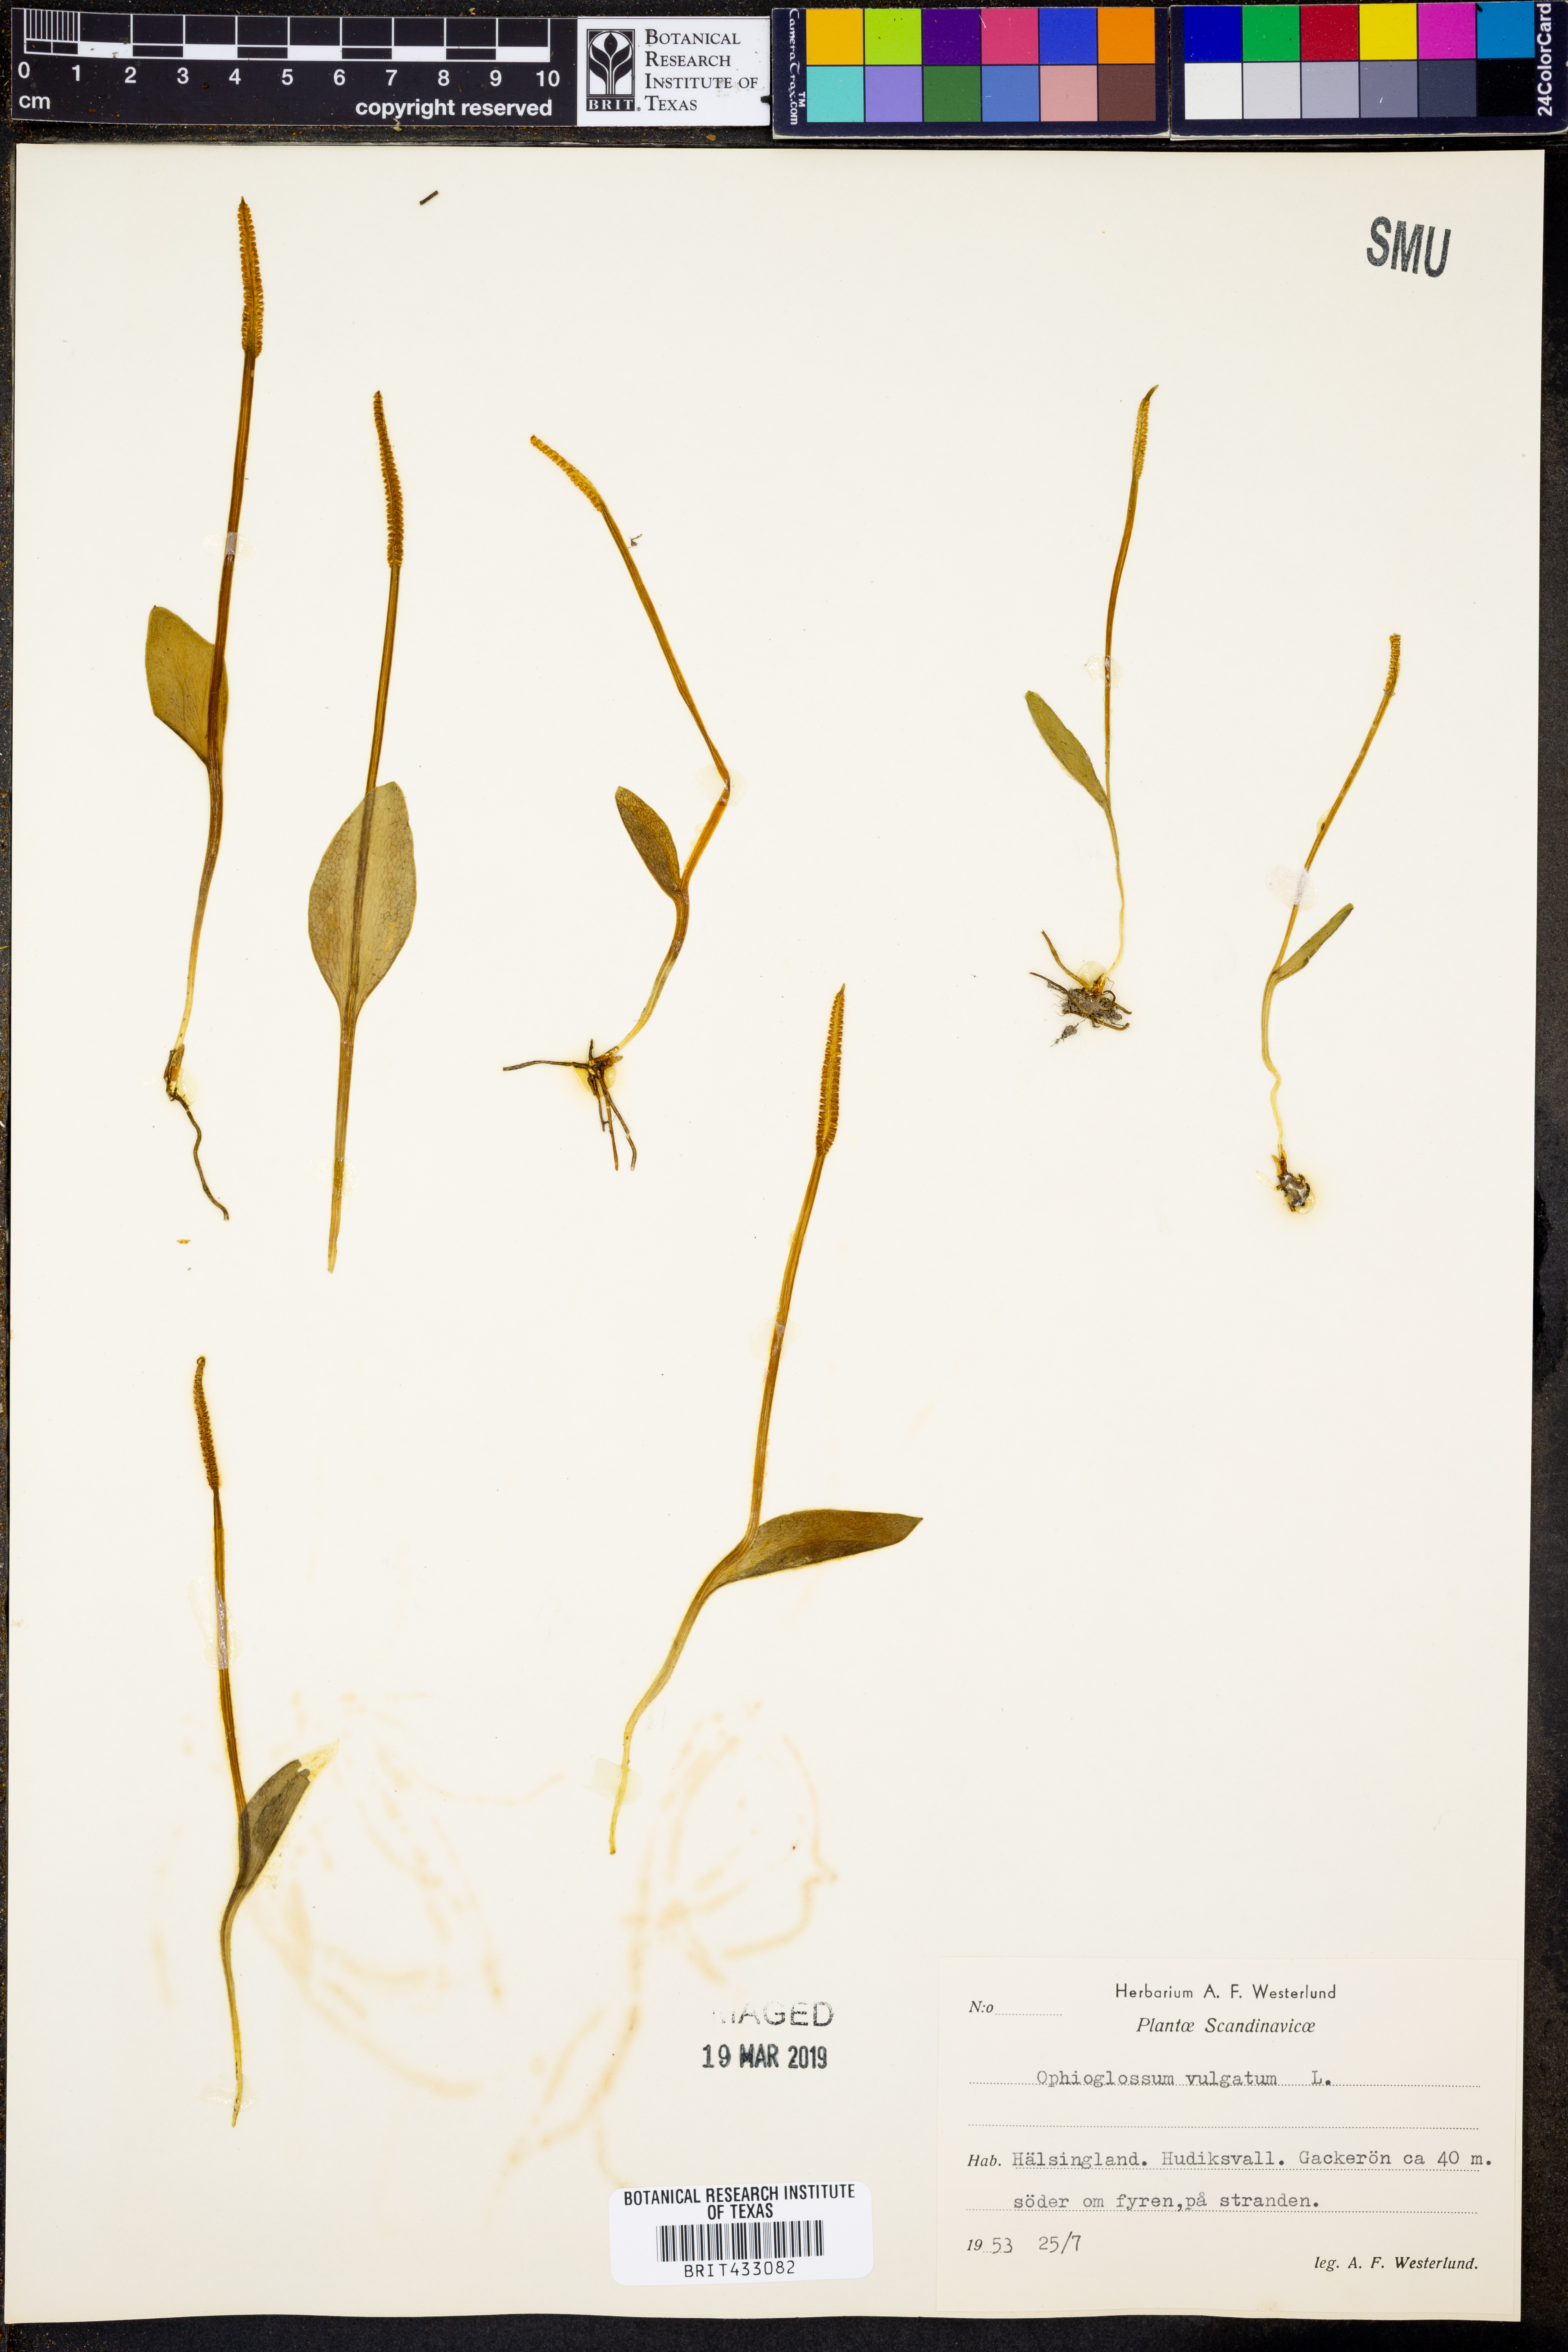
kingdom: Plantae
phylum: Tracheophyta
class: Polypodiopsida
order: Ophioglossales
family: Ophioglossaceae
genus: Ophioglossum
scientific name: Ophioglossum vulgatum
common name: Adder's-tongue
